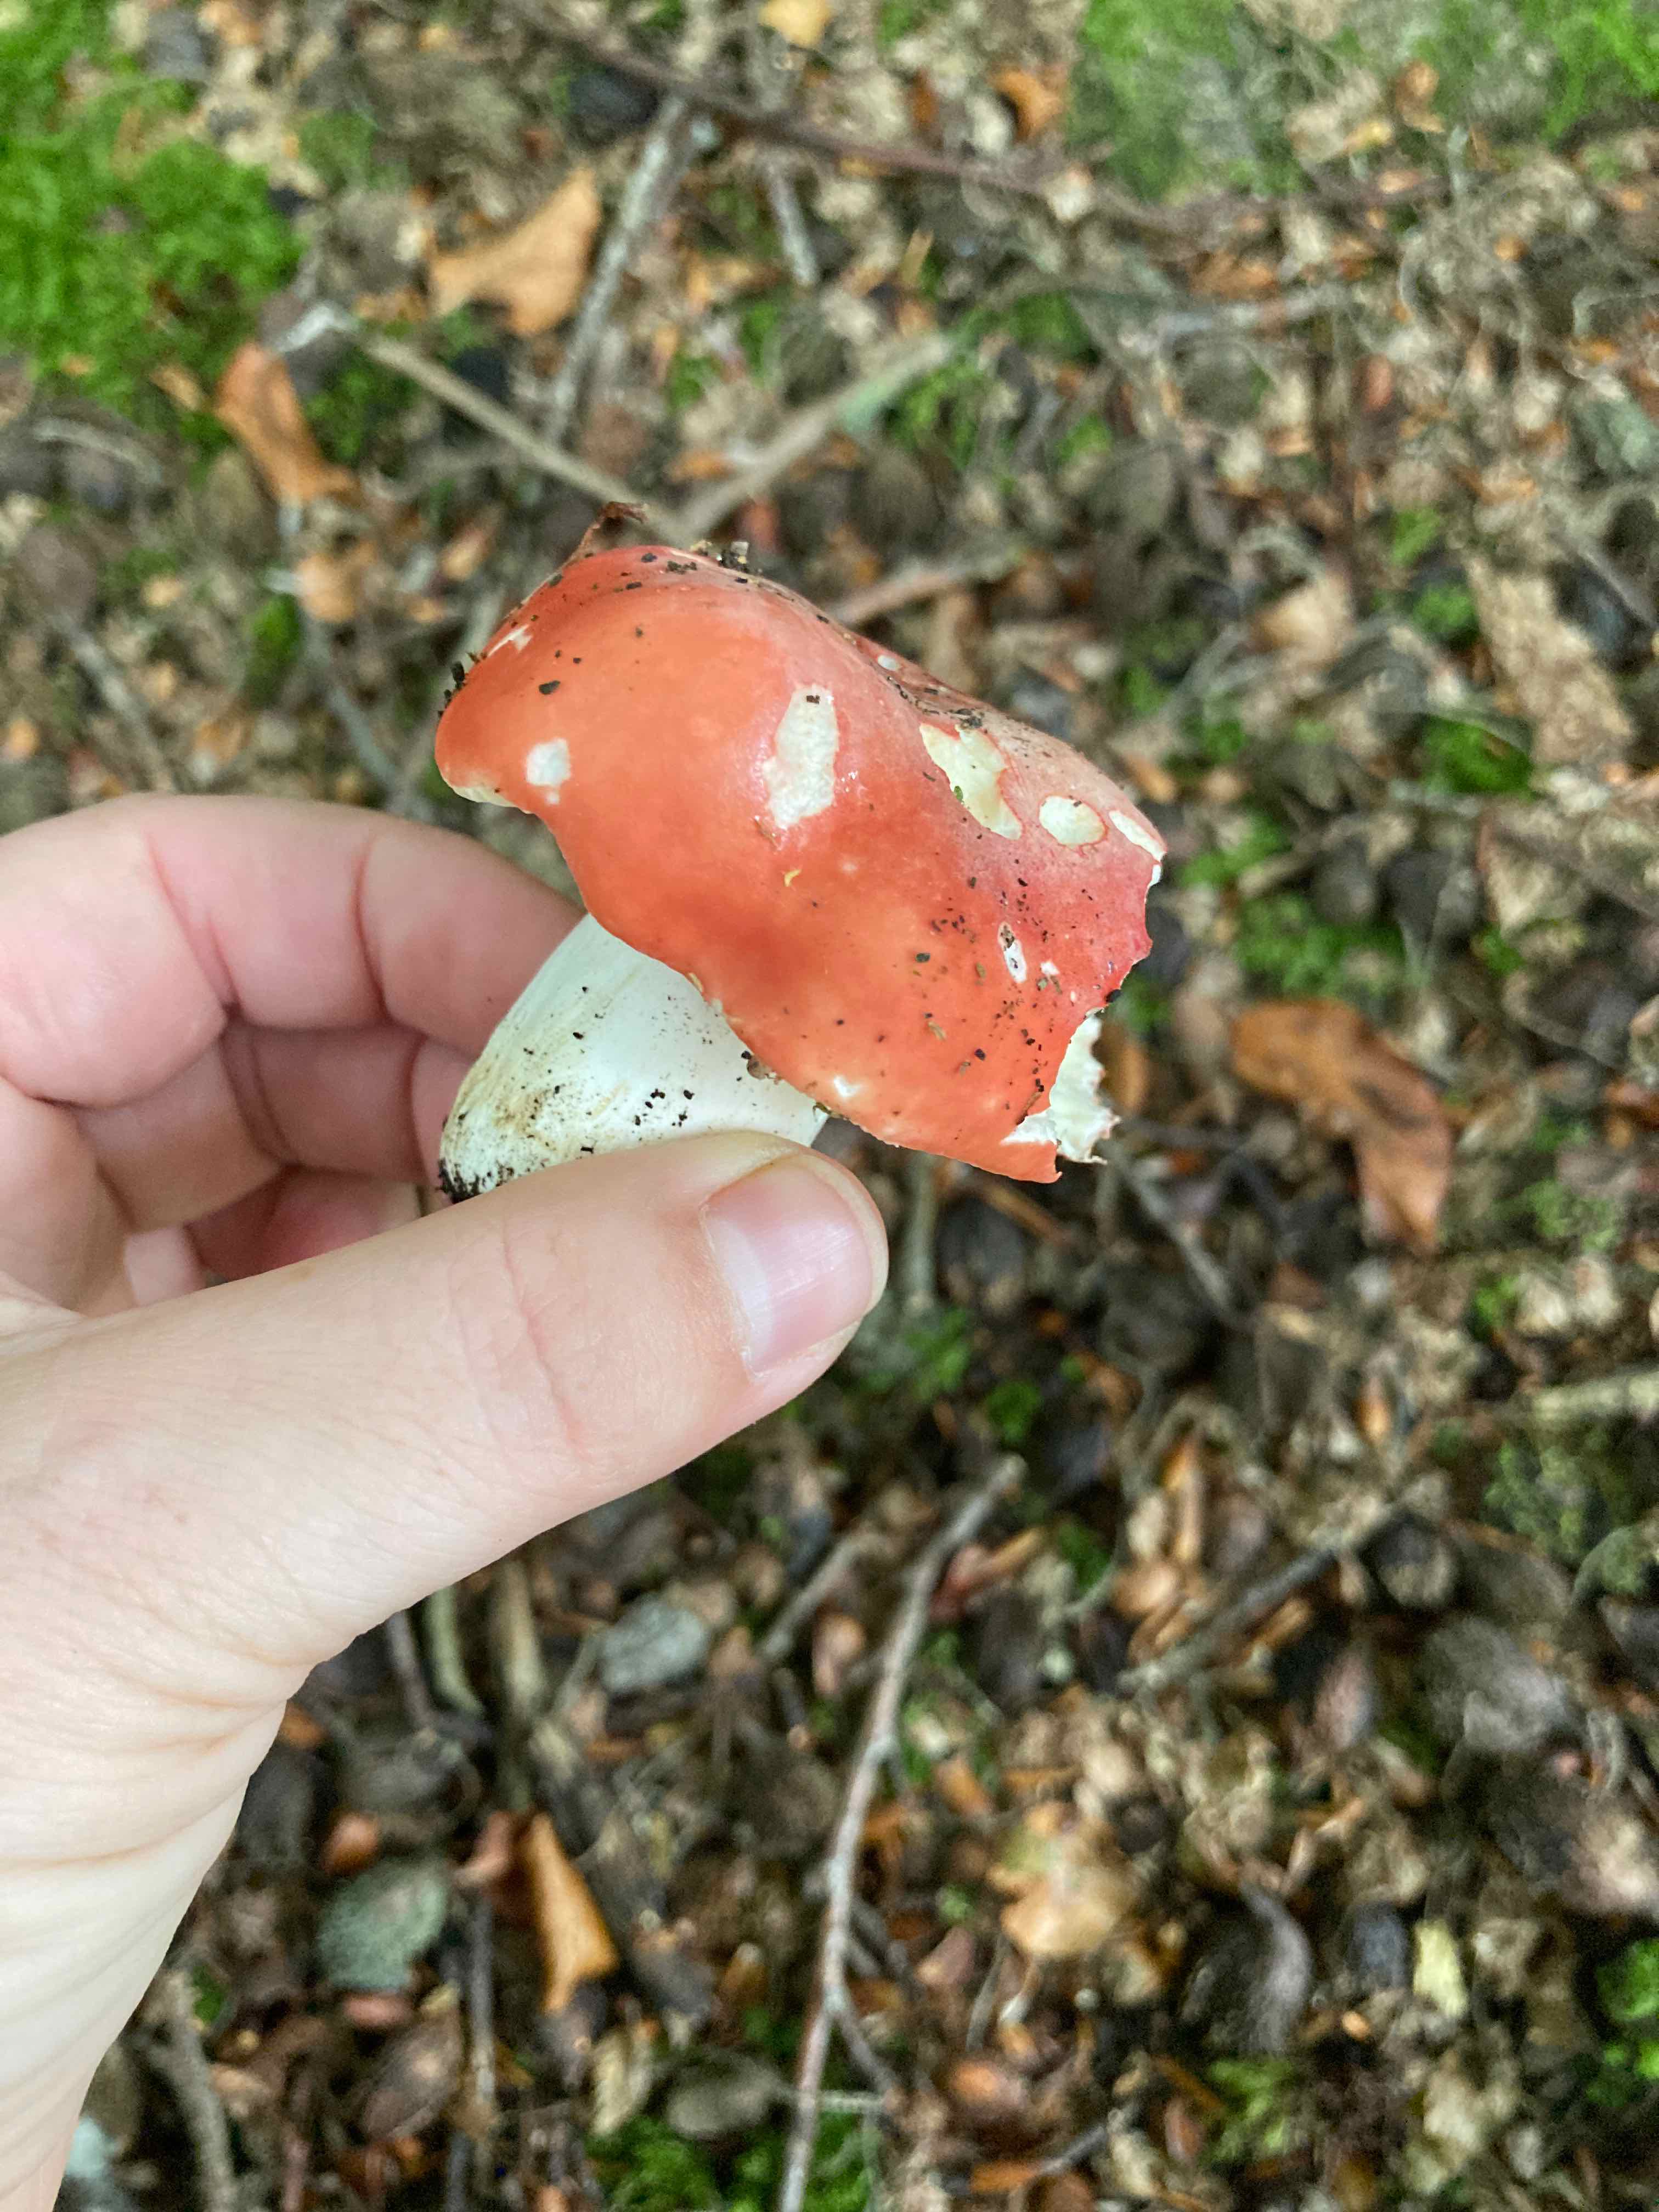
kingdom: Fungi
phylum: Basidiomycota
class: Agaricomycetes
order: Russulales
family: Russulaceae
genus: Russula
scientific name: Russula
